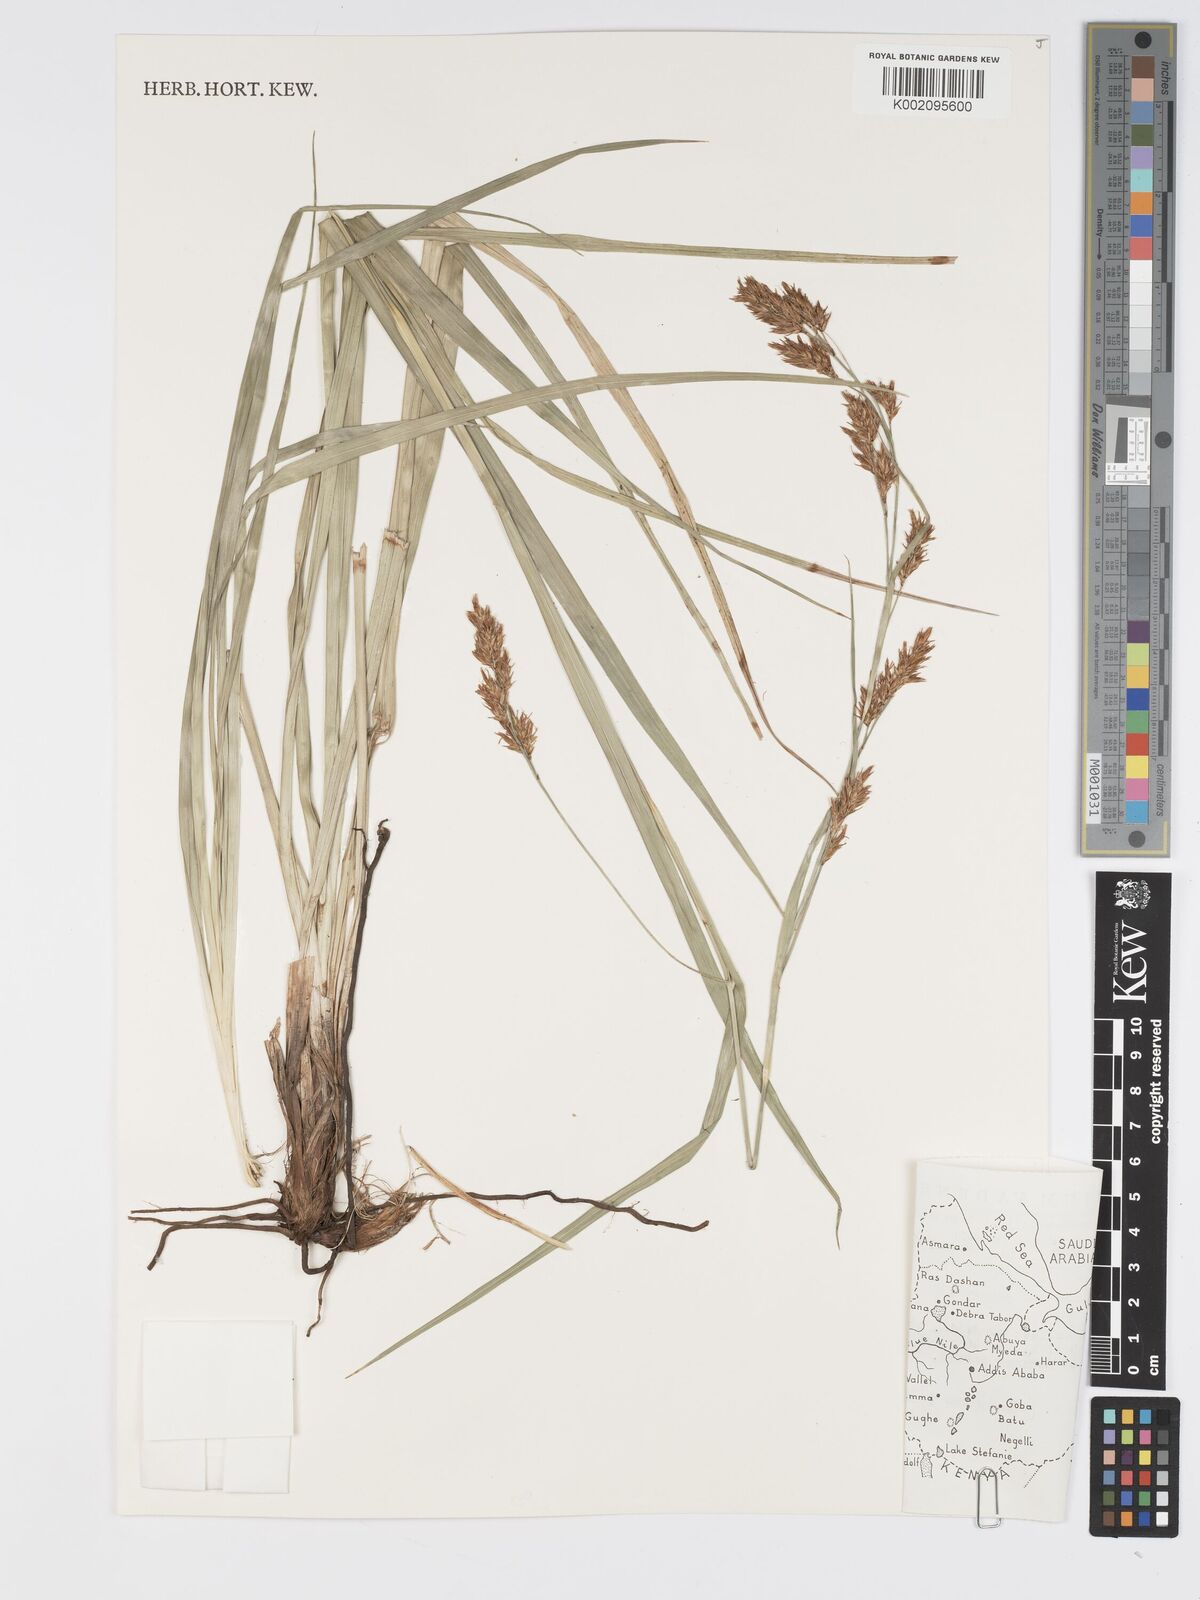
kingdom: Plantae
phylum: Tracheophyta
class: Liliopsida
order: Poales
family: Cyperaceae
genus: Carex
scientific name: Carex steudneri
